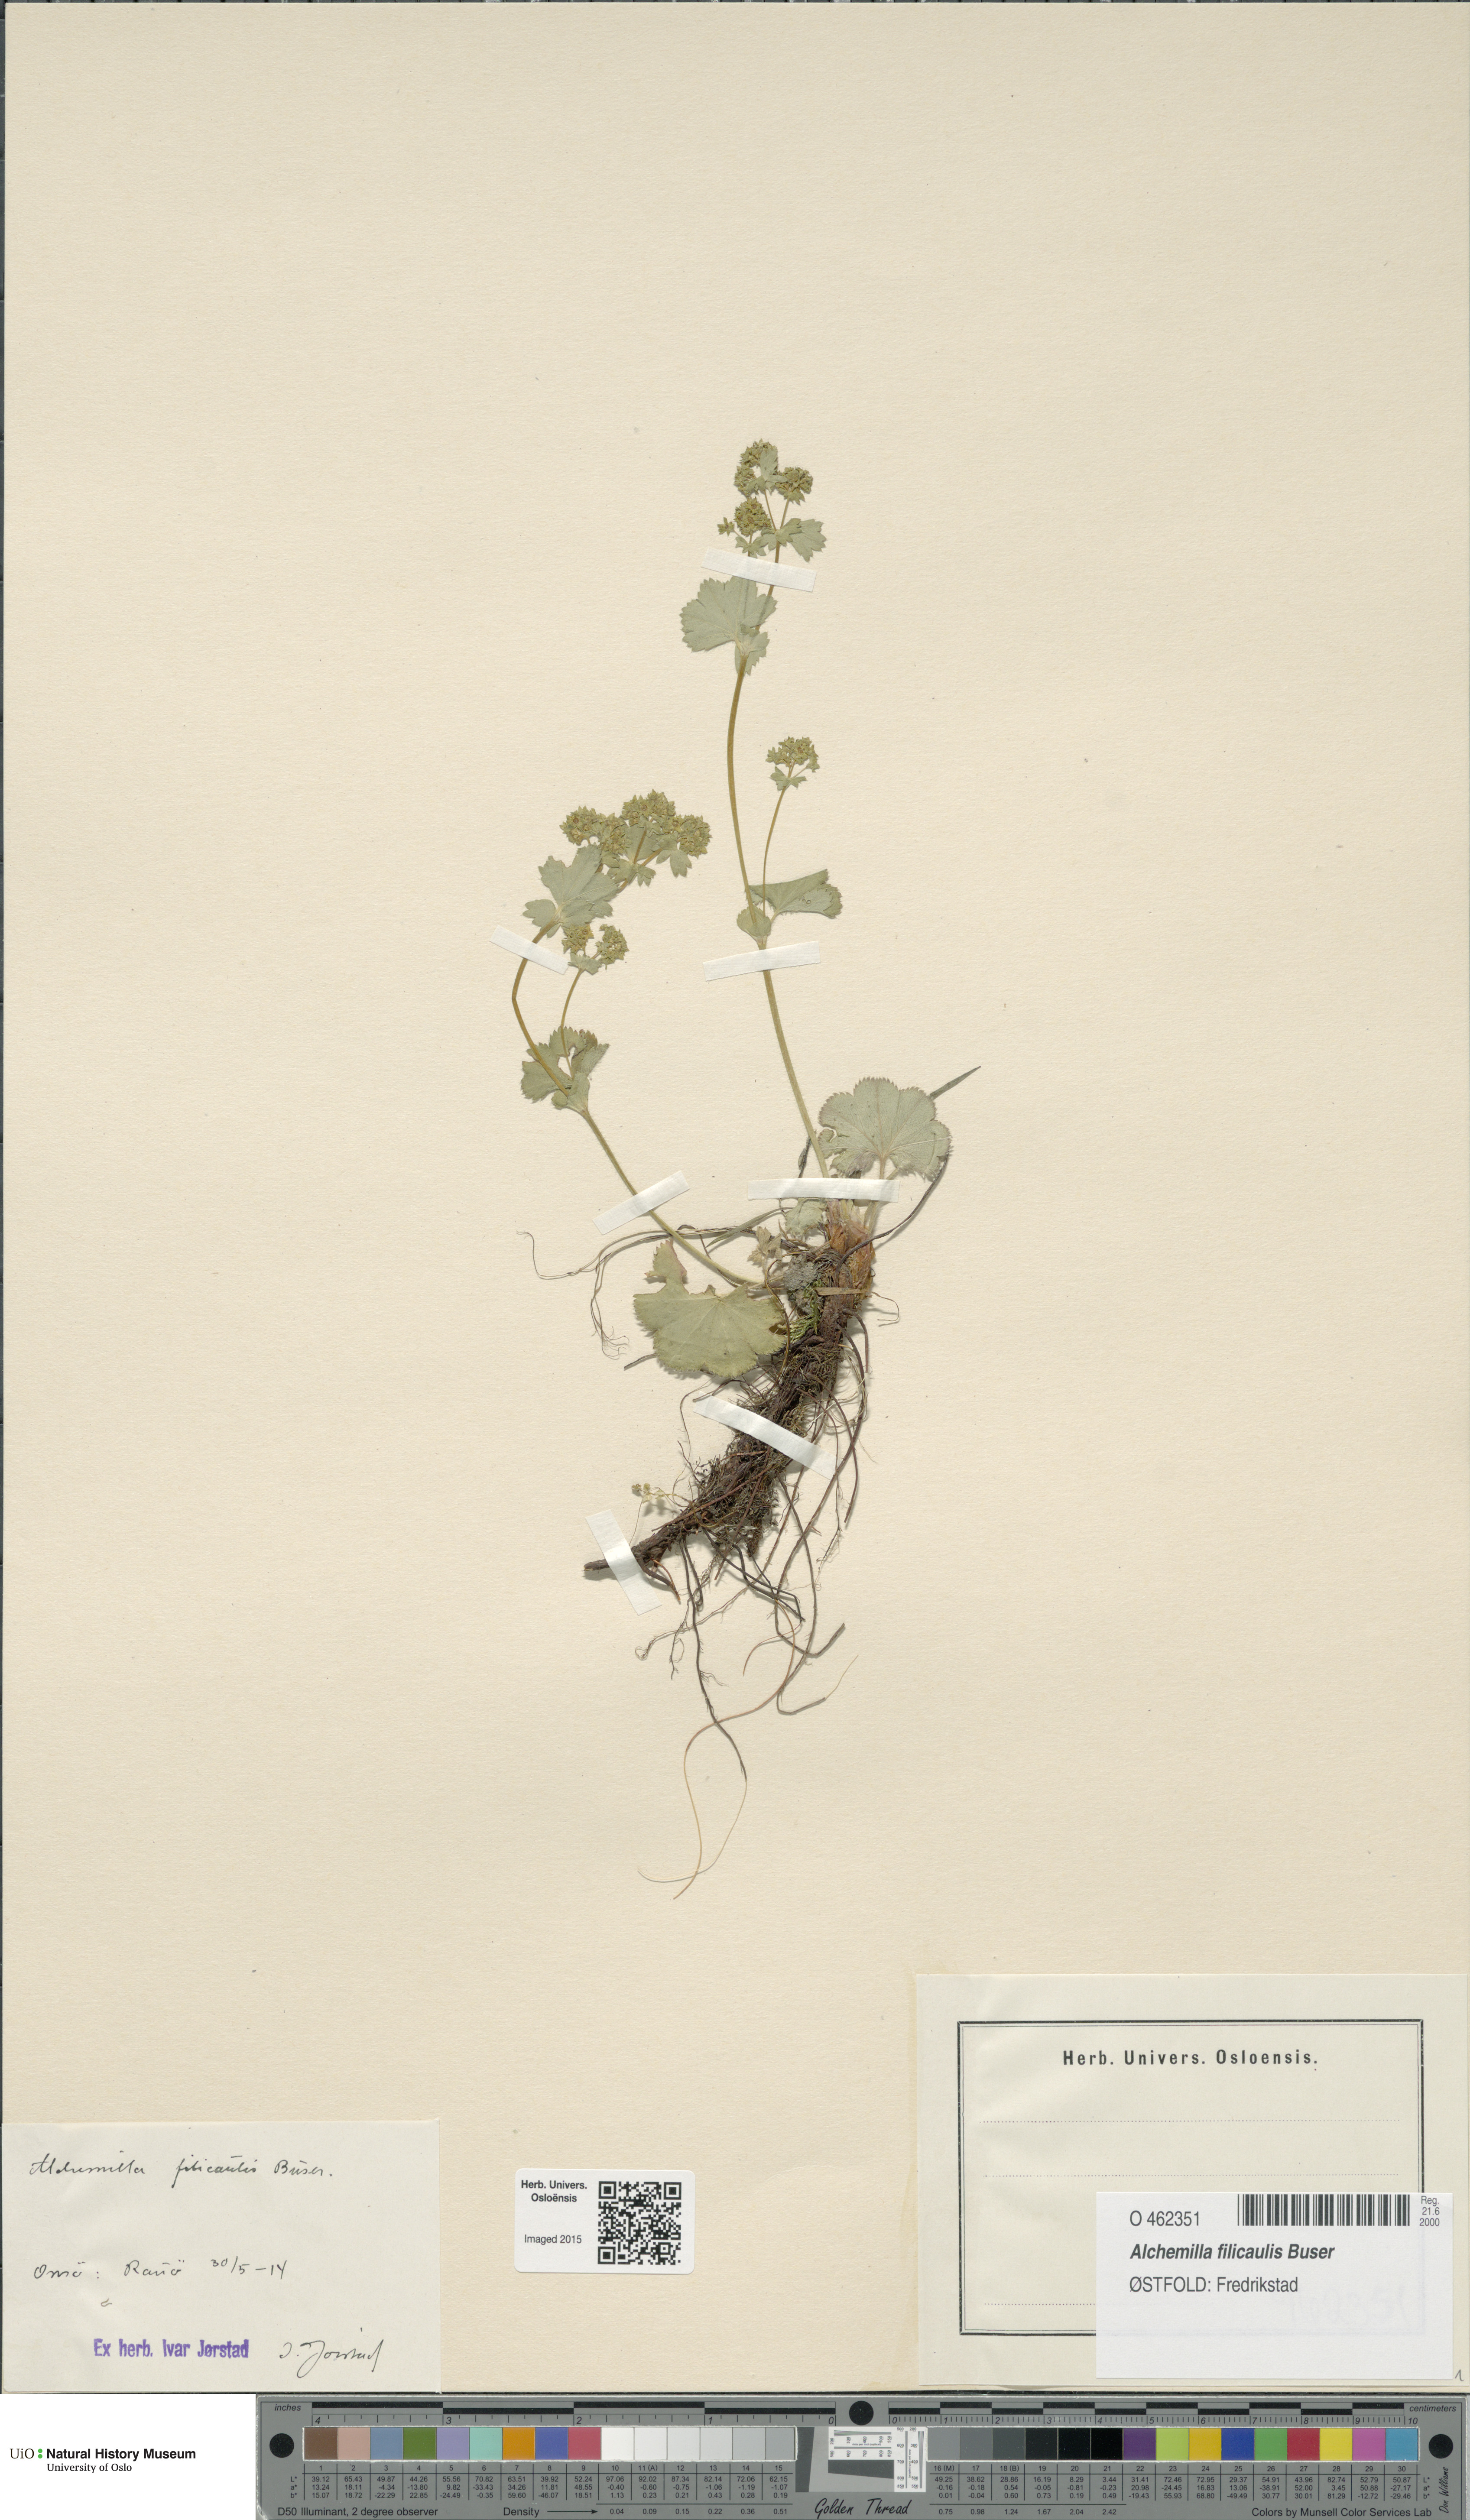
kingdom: Plantae
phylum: Tracheophyta
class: Magnoliopsida
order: Rosales
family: Rosaceae
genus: Alchemilla
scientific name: Alchemilla filicaulis
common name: Hairy lady's-mantle
